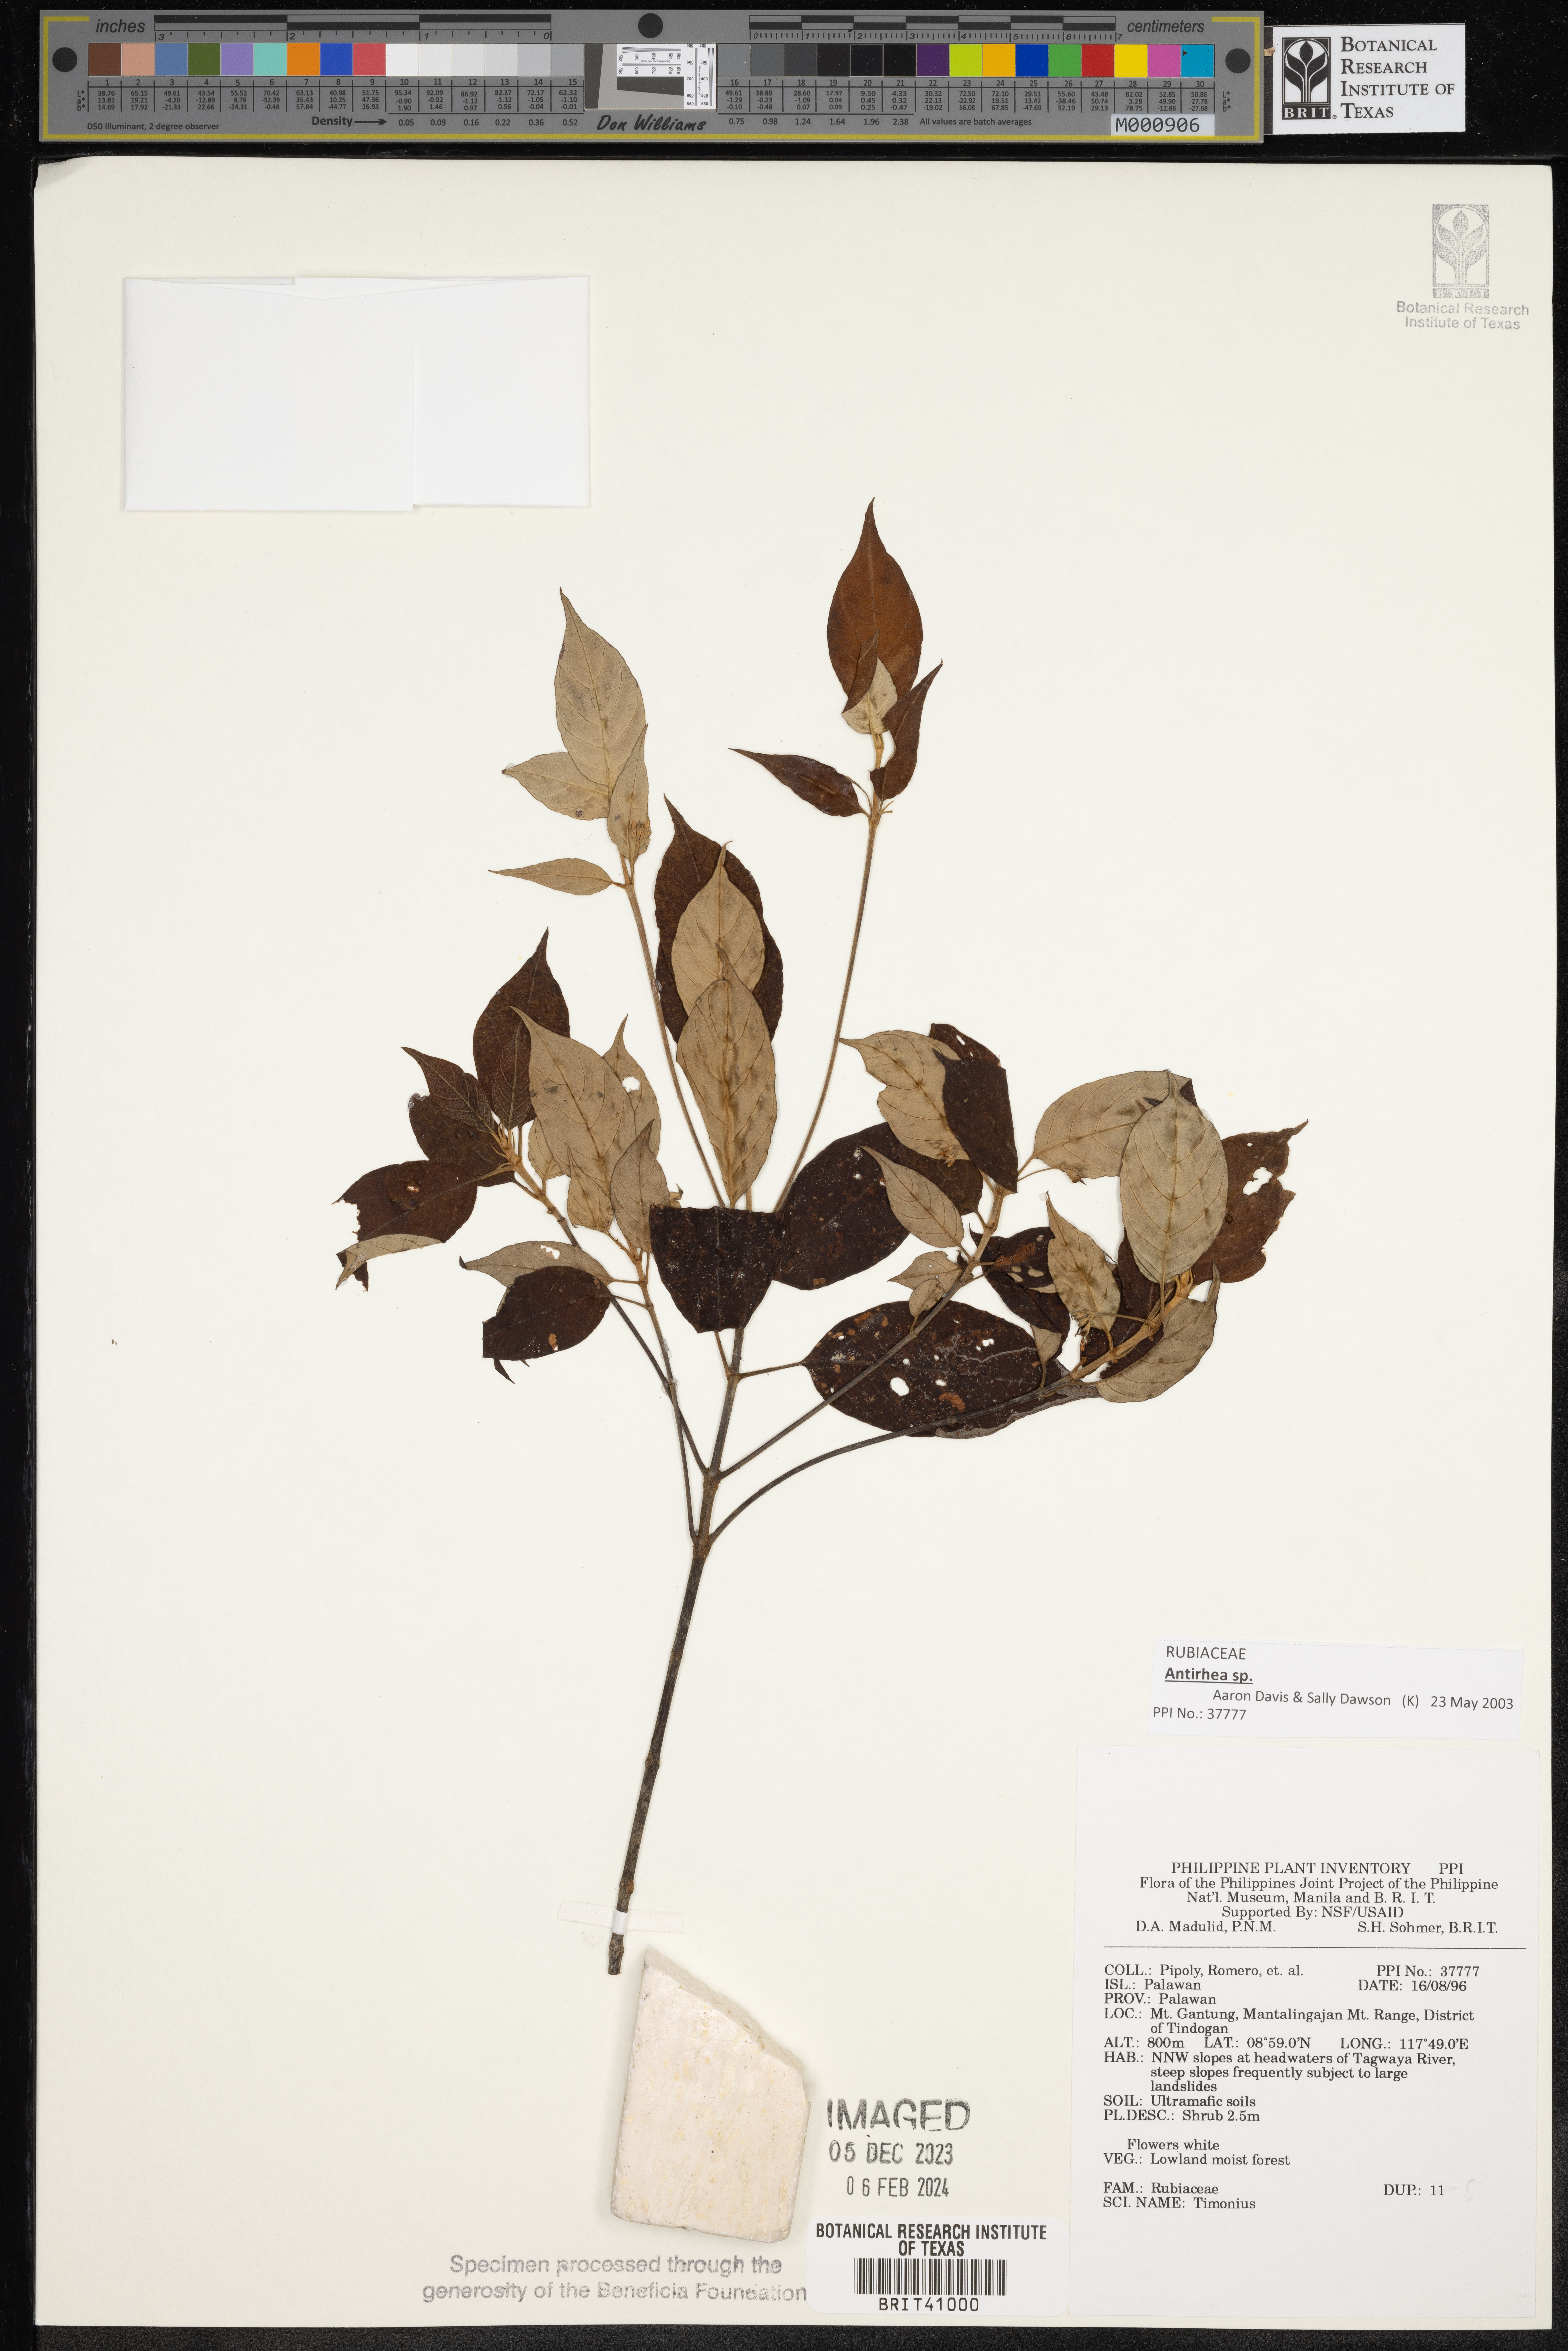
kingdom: Plantae
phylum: Tracheophyta
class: Magnoliopsida
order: Gentianales
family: Rubiaceae
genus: Timonius
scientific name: Timonius
